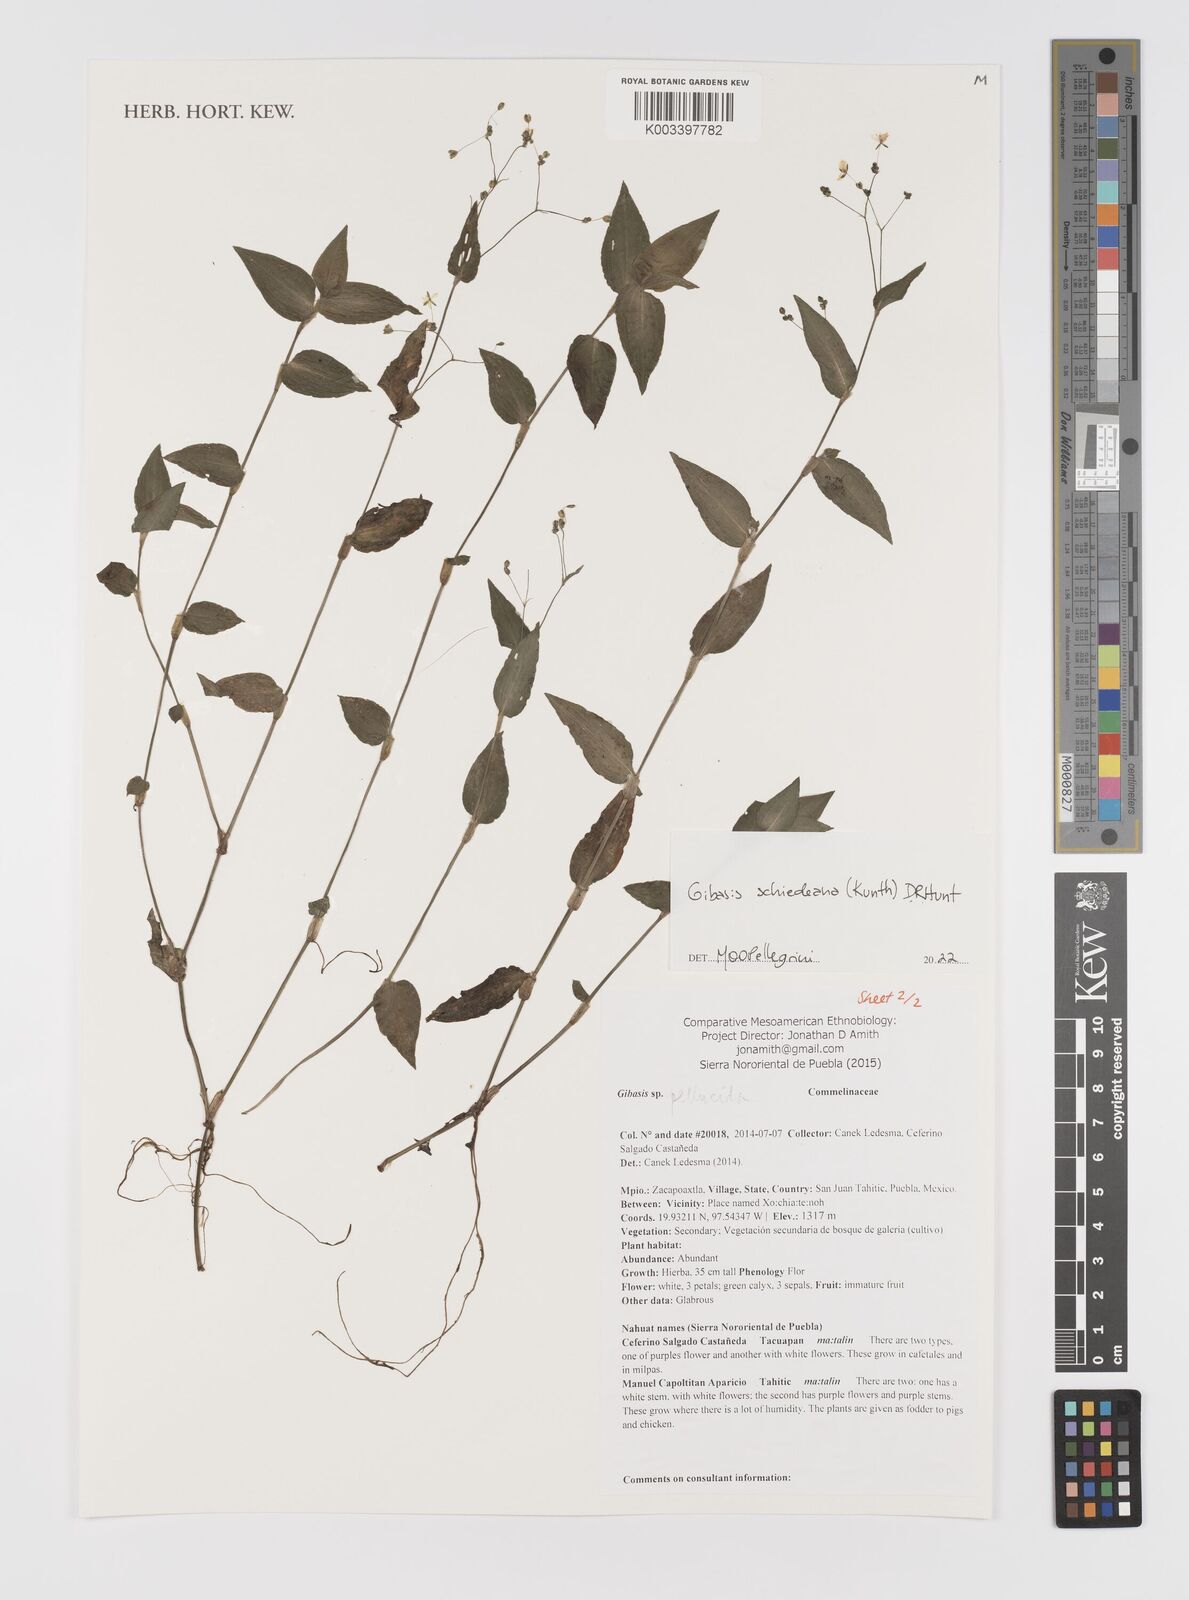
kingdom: Plantae
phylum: Tracheophyta
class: Liliopsida
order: Commelinales
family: Commelinaceae
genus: Gibasis
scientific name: Gibasis
